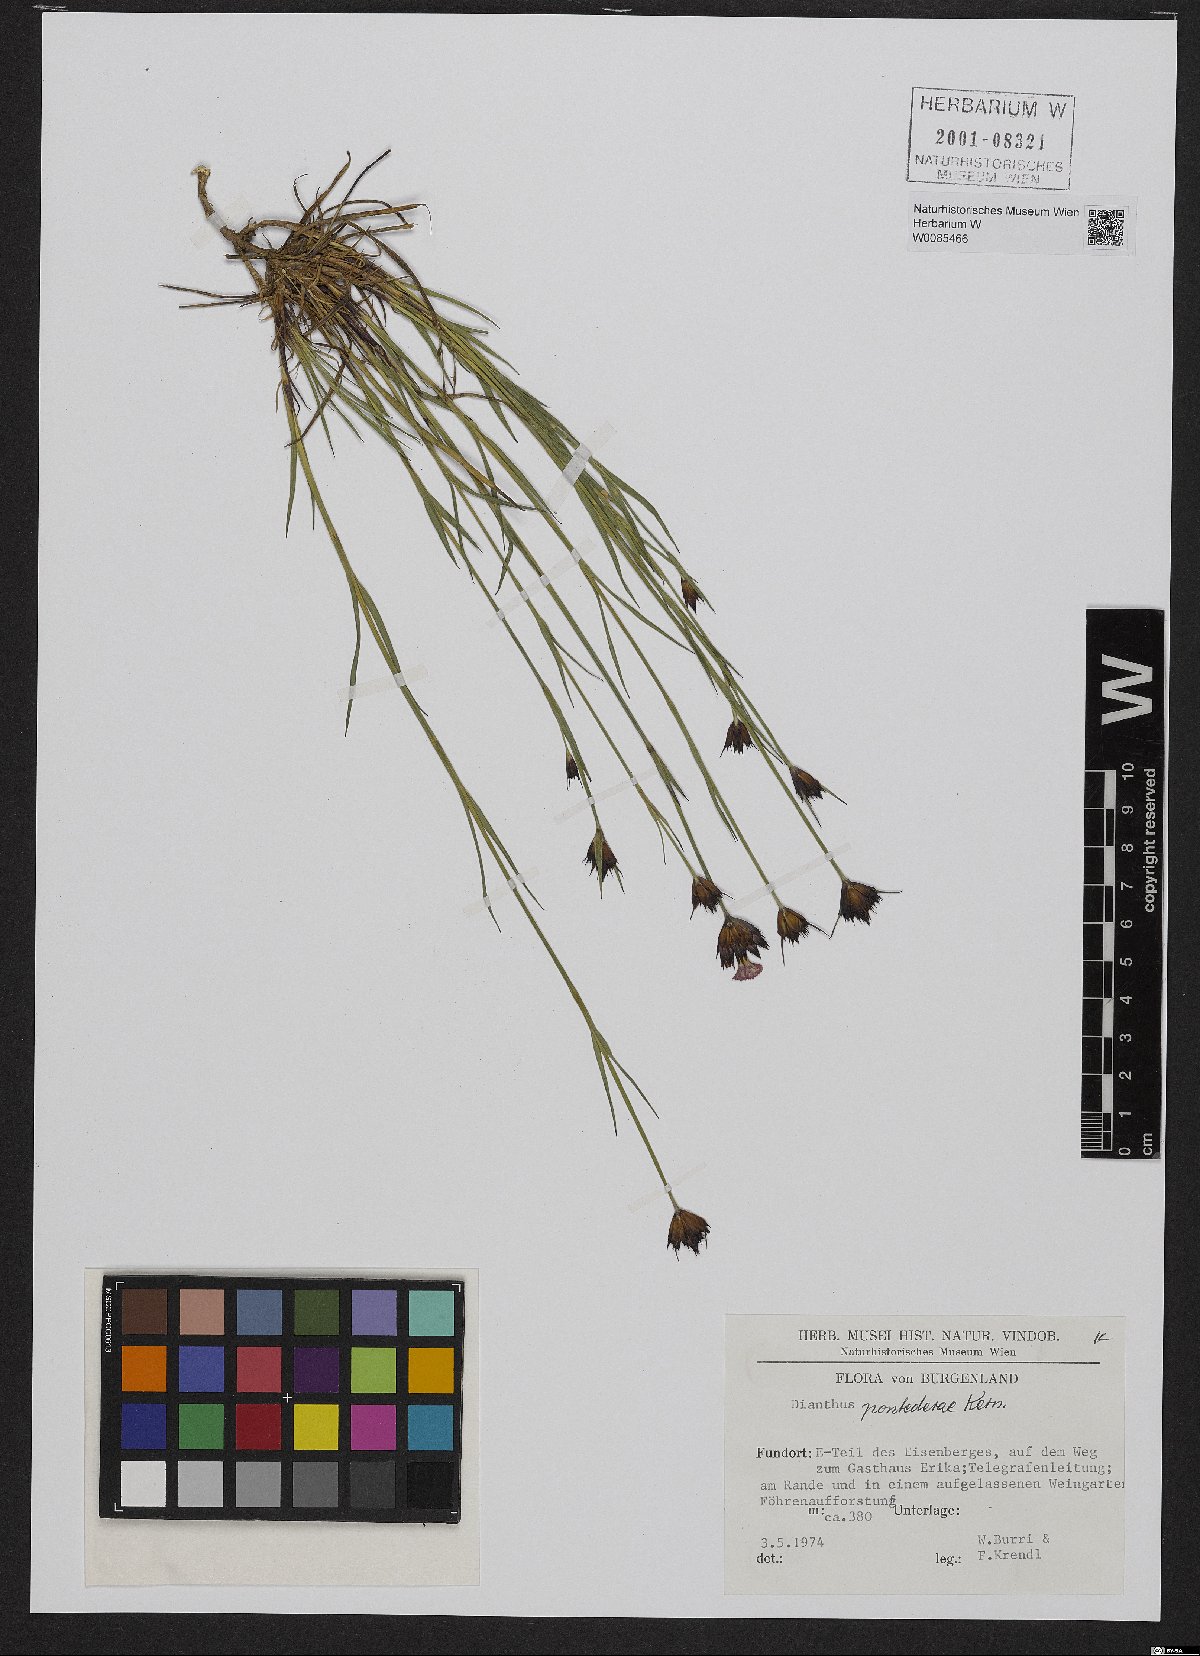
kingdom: Plantae
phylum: Tracheophyta
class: Magnoliopsida
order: Caryophyllales
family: Caryophyllaceae
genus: Dianthus
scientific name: Dianthus pontederae
